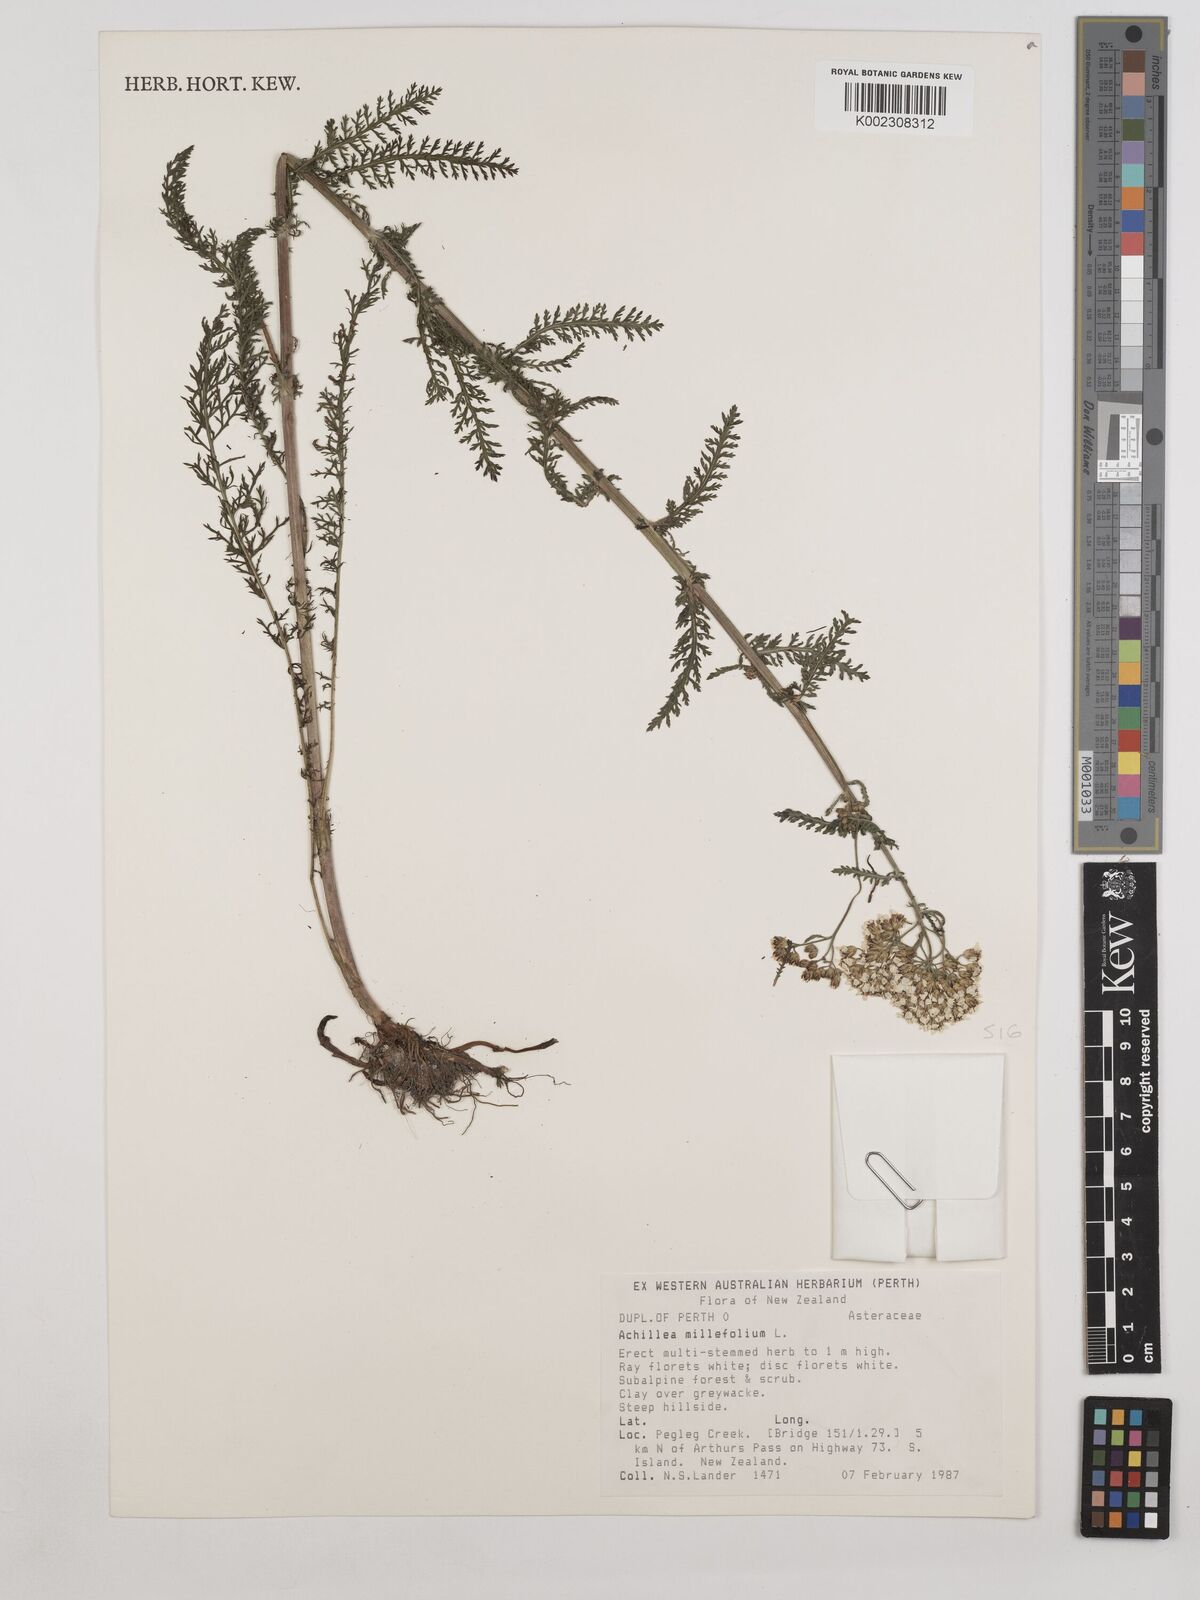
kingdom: Plantae
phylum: Tracheophyta
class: Magnoliopsida
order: Asterales
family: Asteraceae
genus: Achillea
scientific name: Achillea millefolium
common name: Yarrow
